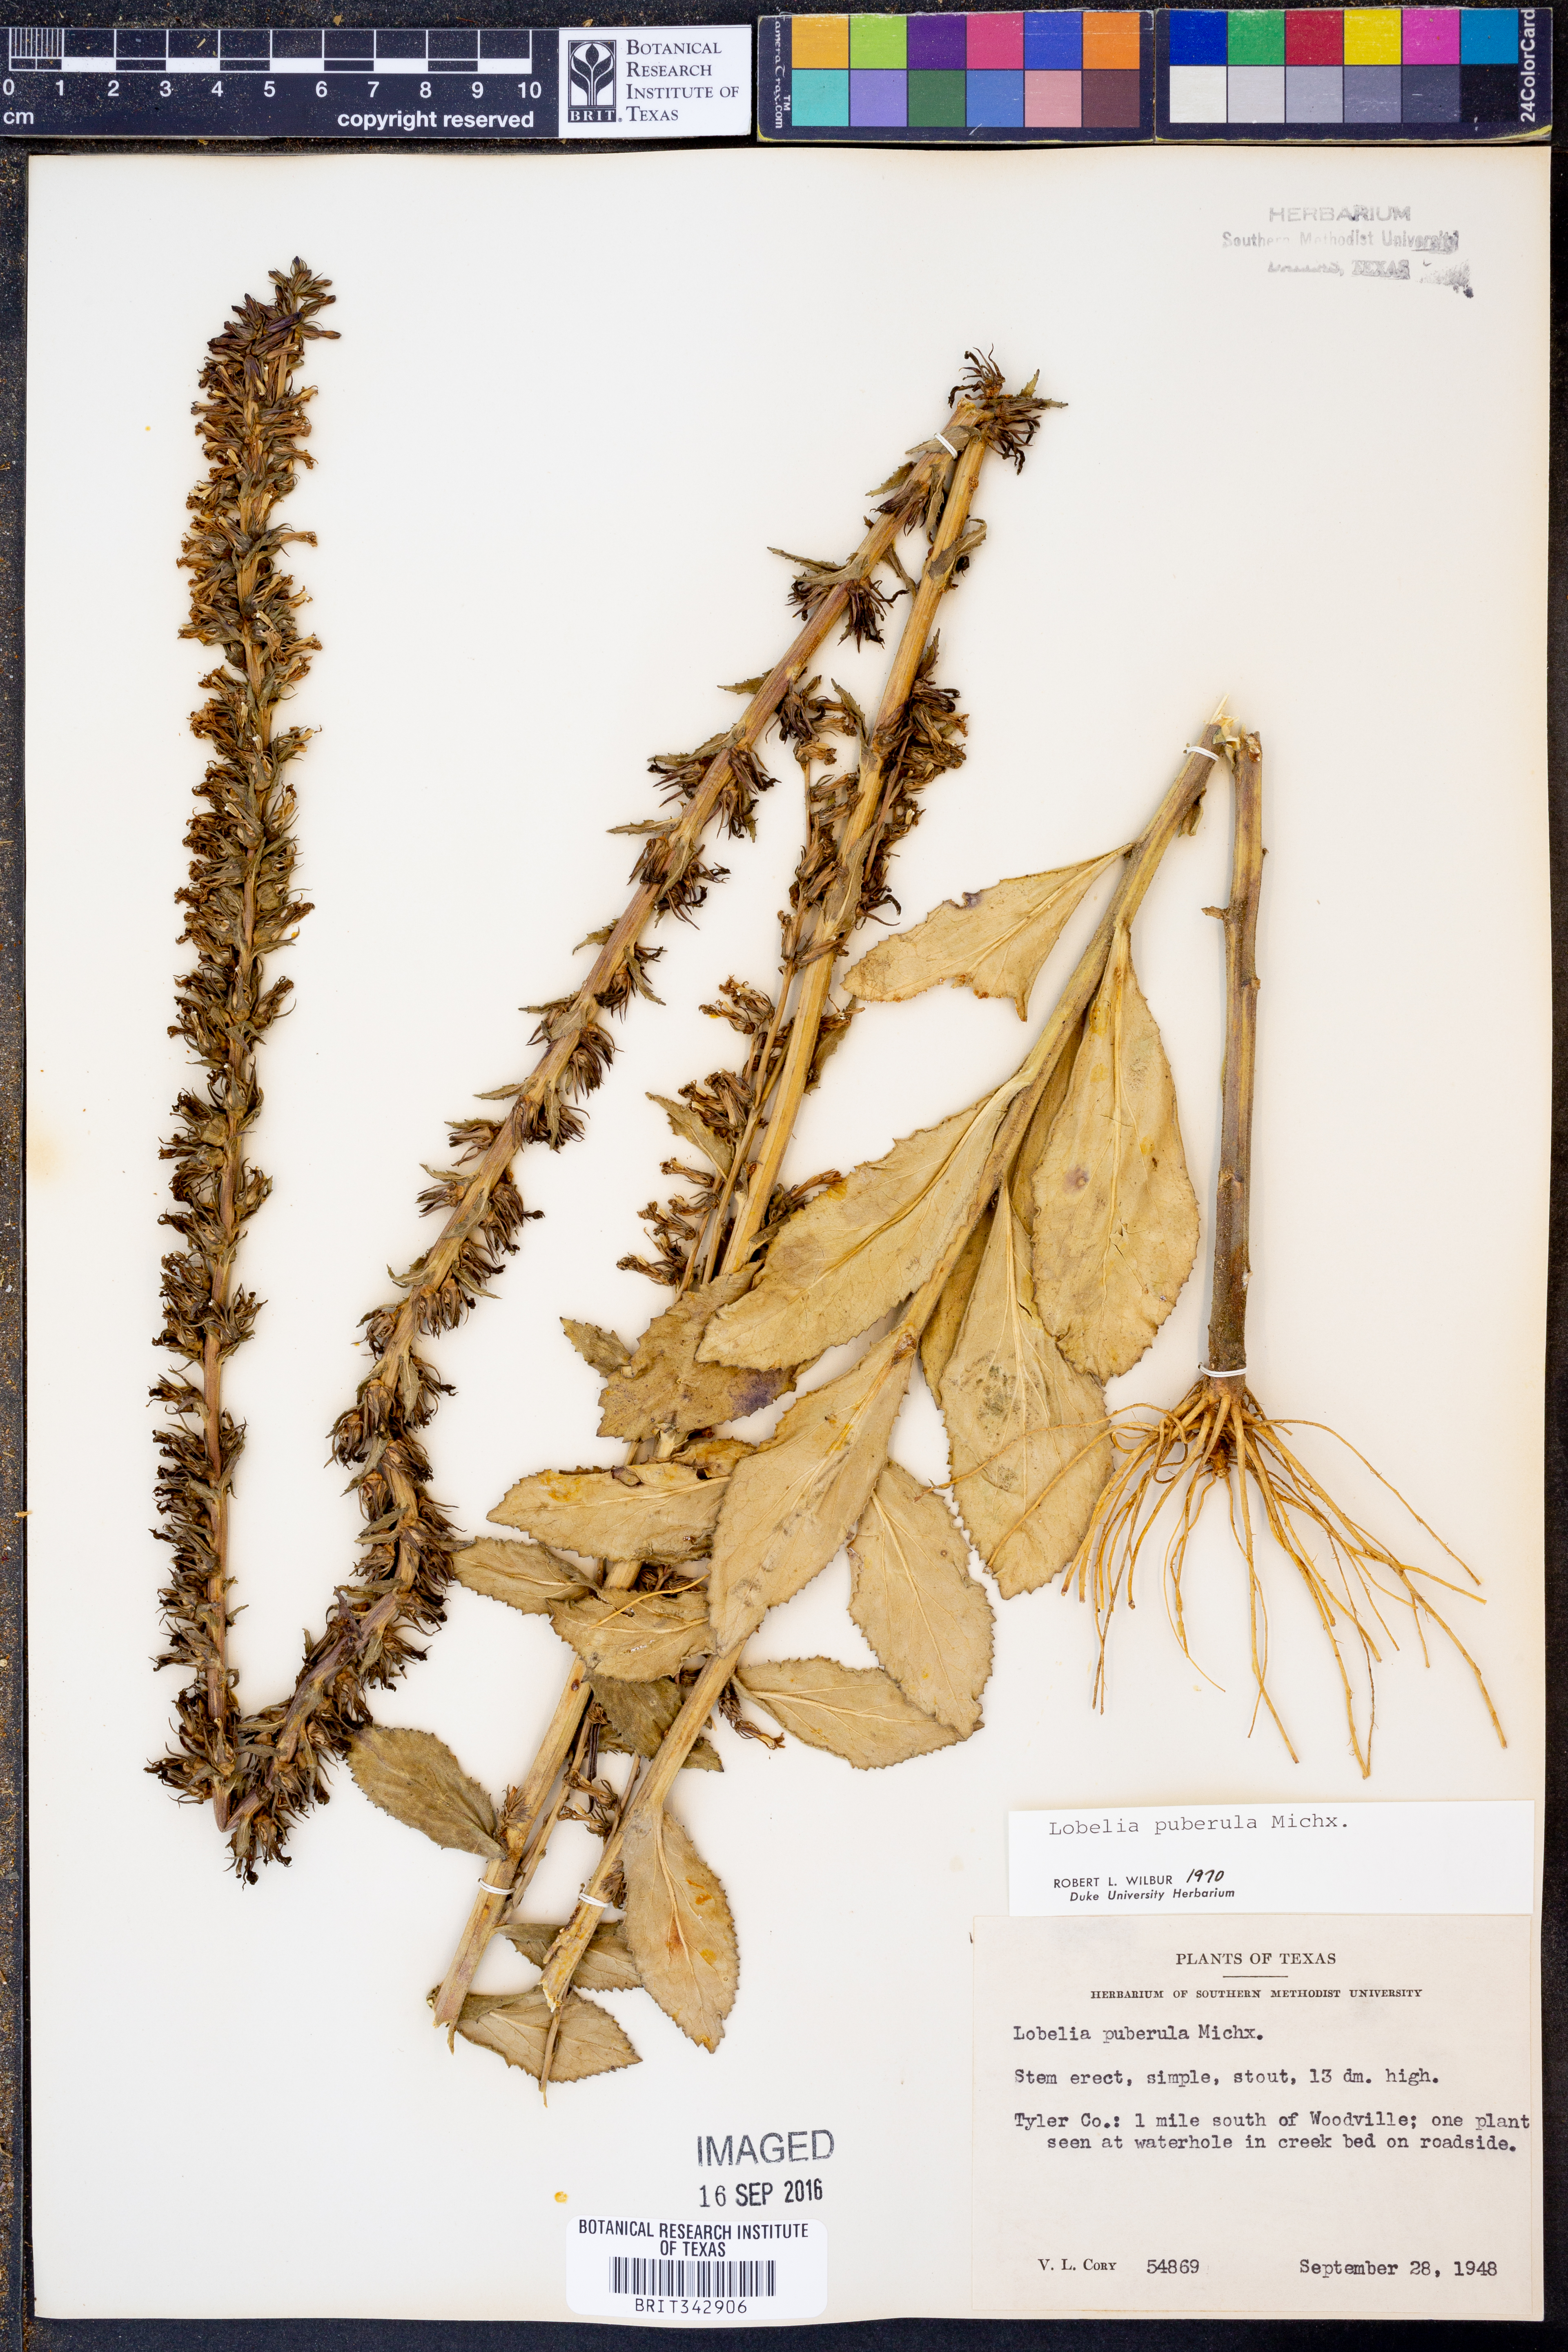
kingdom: Plantae
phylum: Tracheophyta
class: Magnoliopsida
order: Asterales
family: Campanulaceae
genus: Lobelia
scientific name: Lobelia puberula
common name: Purple dewdrop
